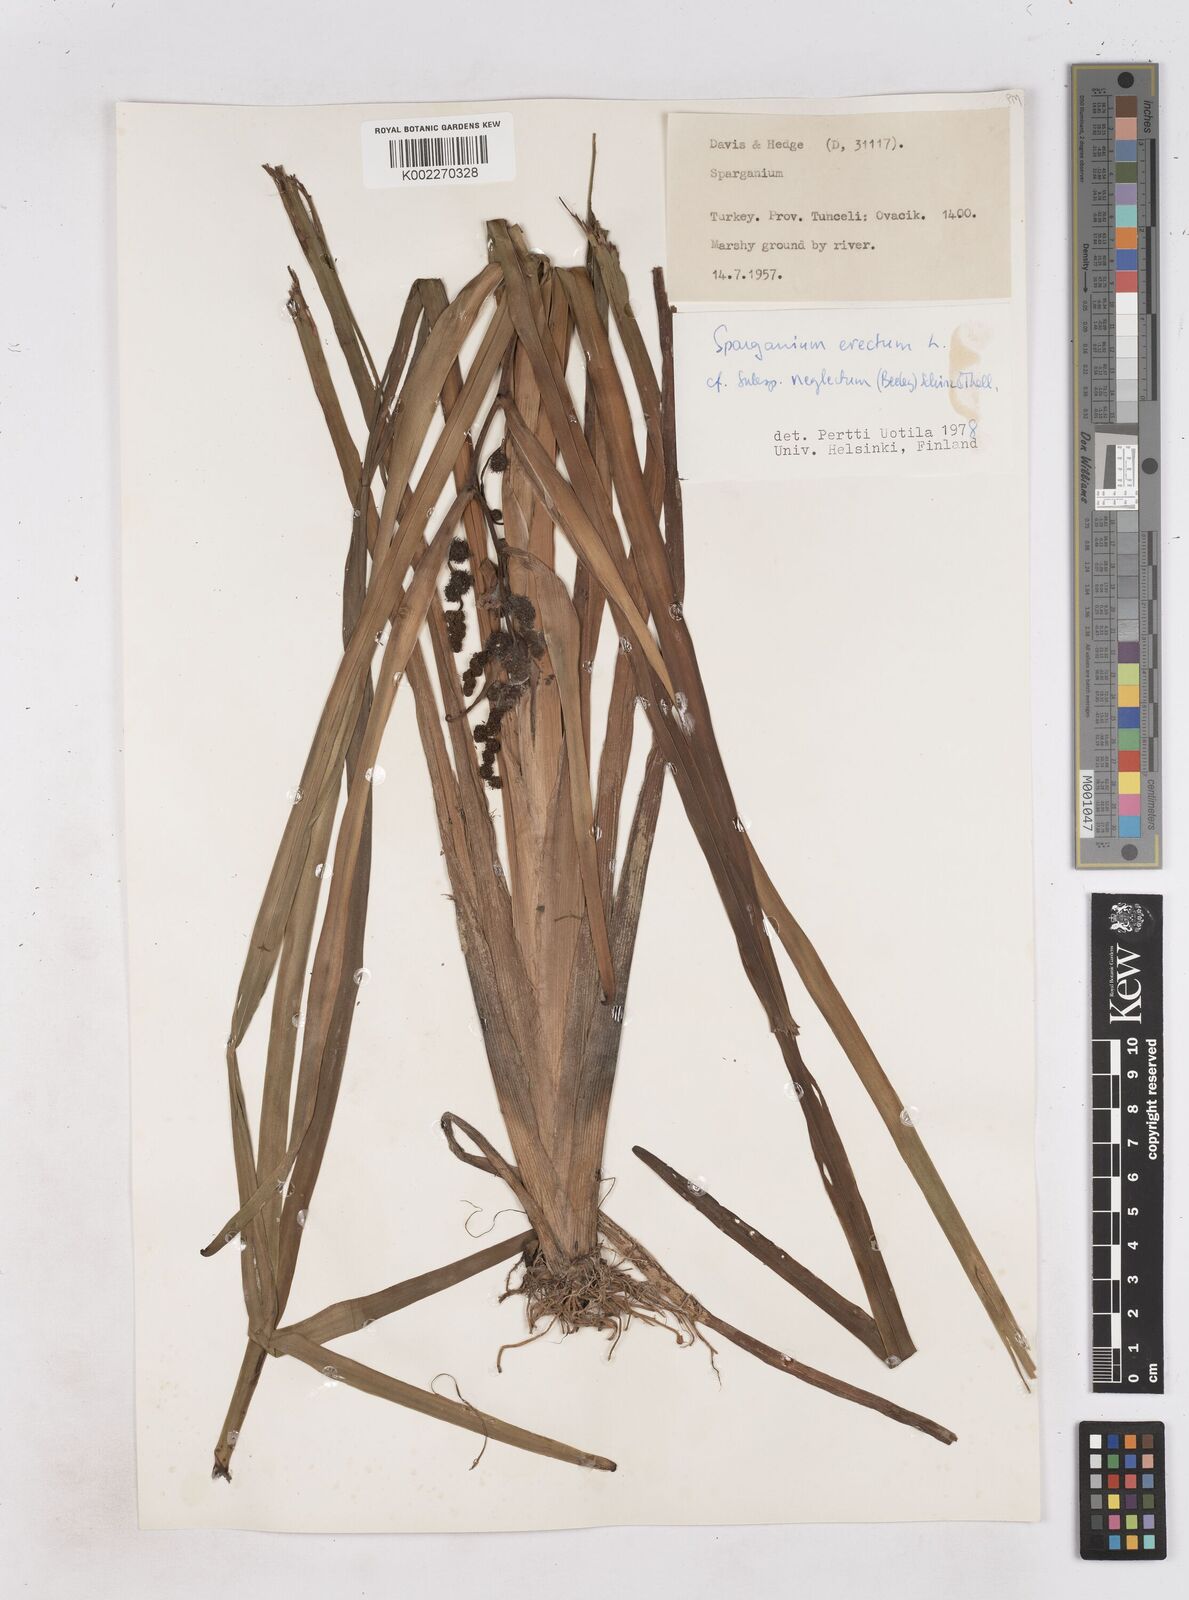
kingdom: Plantae
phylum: Tracheophyta
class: Liliopsida
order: Poales
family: Typhaceae
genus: Sparganium
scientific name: Sparganium erectum
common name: Branched bur-reed
